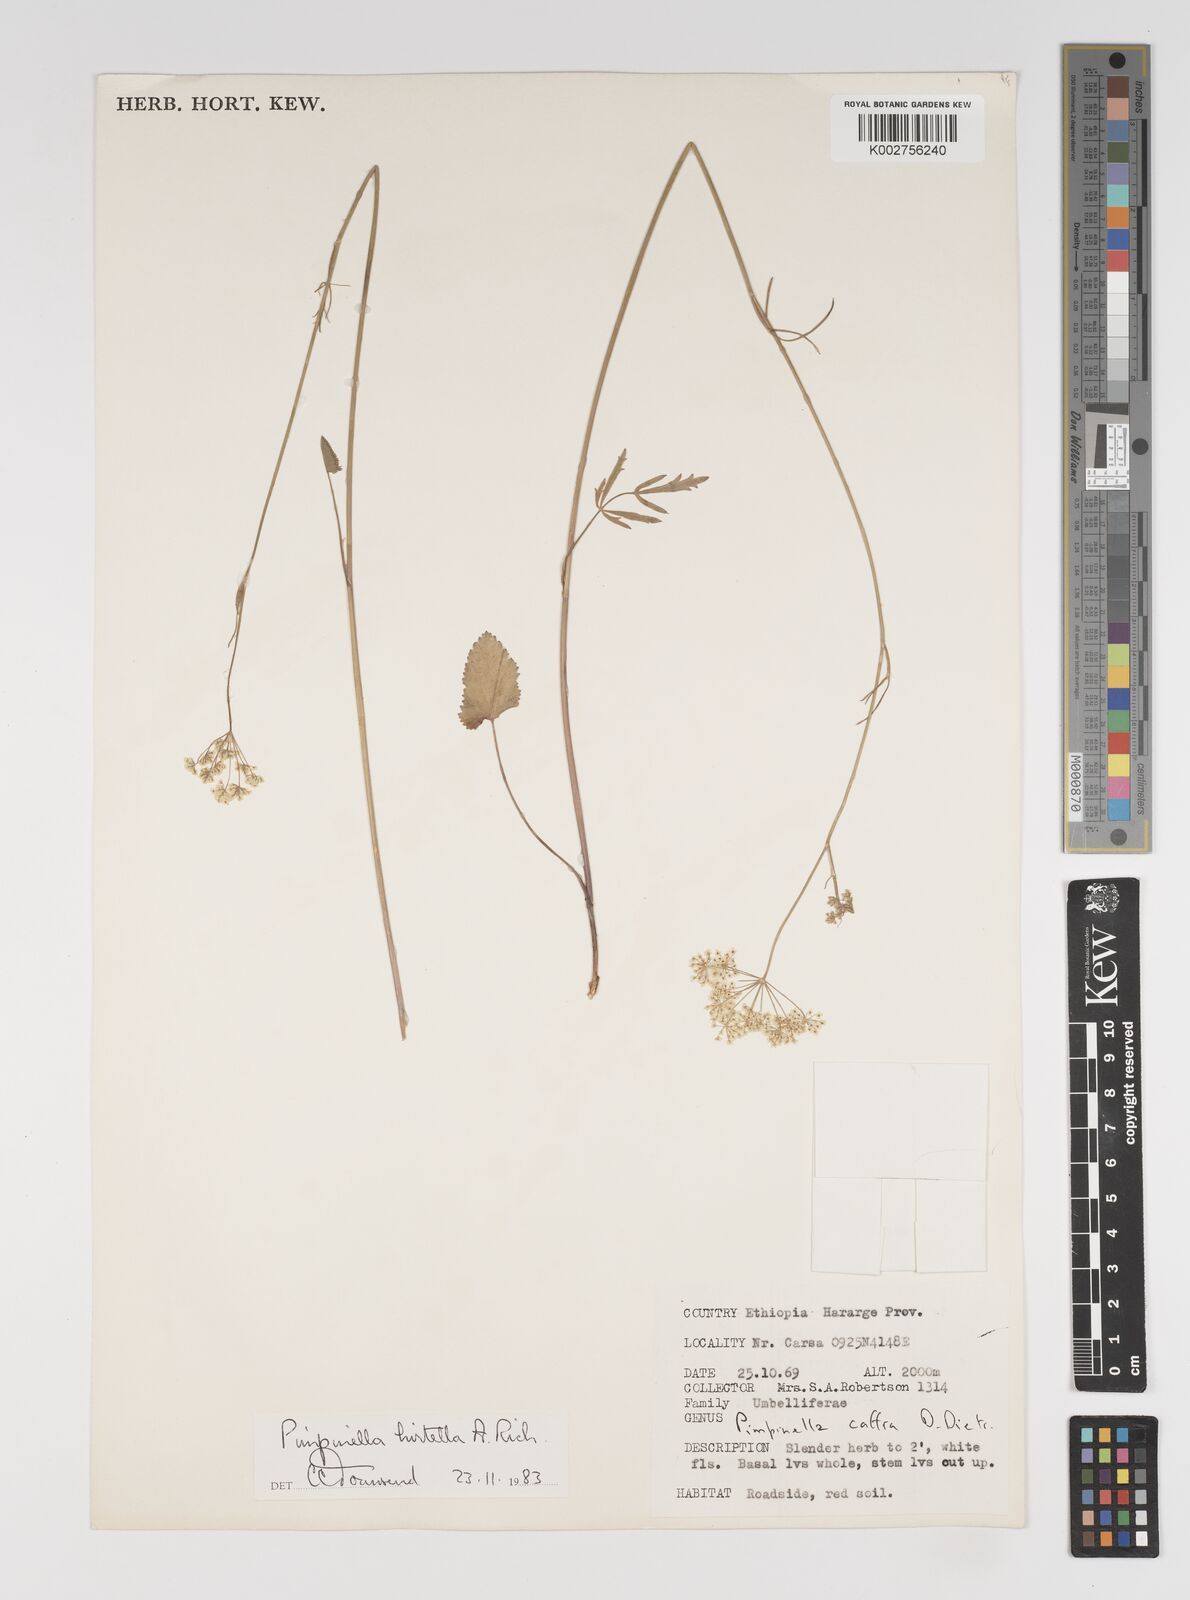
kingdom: Plantae
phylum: Tracheophyta
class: Magnoliopsida
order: Apiales
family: Apiaceae
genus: Pimpinella
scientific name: Pimpinella hirtella
